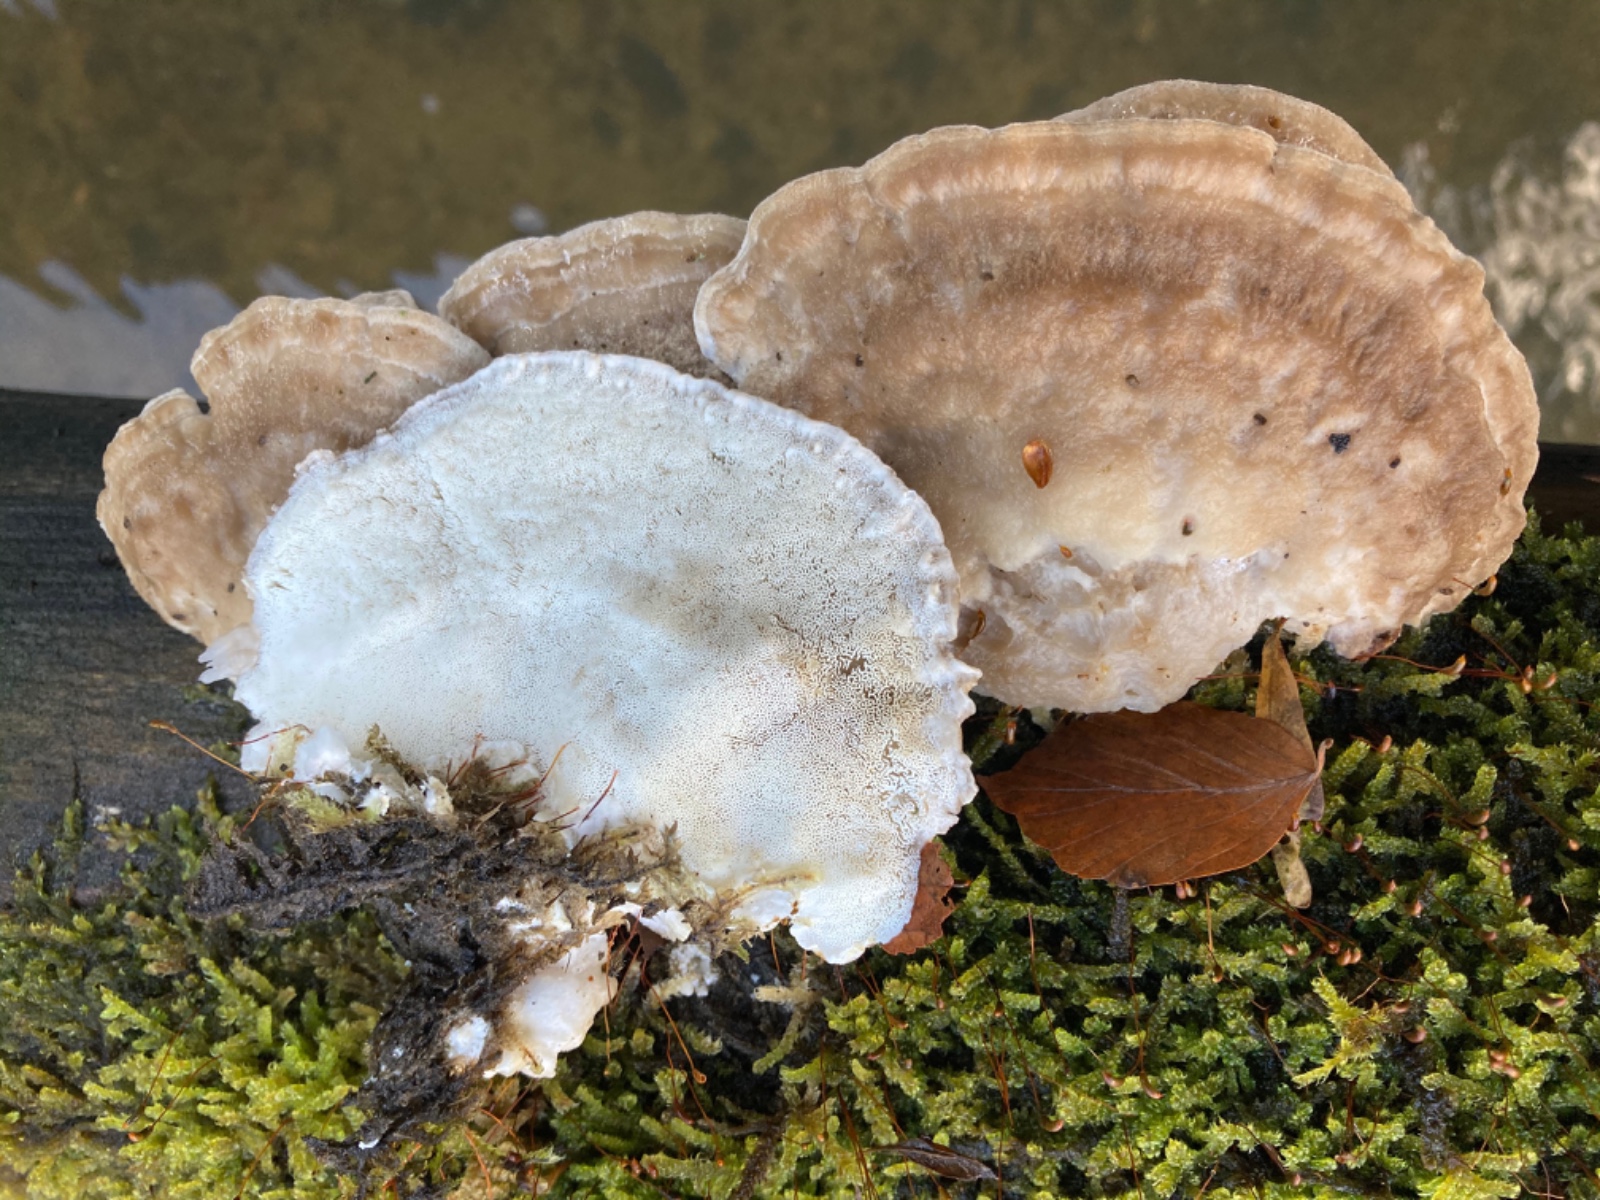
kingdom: Fungi
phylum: Basidiomycota
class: Agaricomycetes
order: Polyporales
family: Incrustoporiaceae
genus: Tyromyces
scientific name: Tyromyces chioneus
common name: stor blødporesvamp
